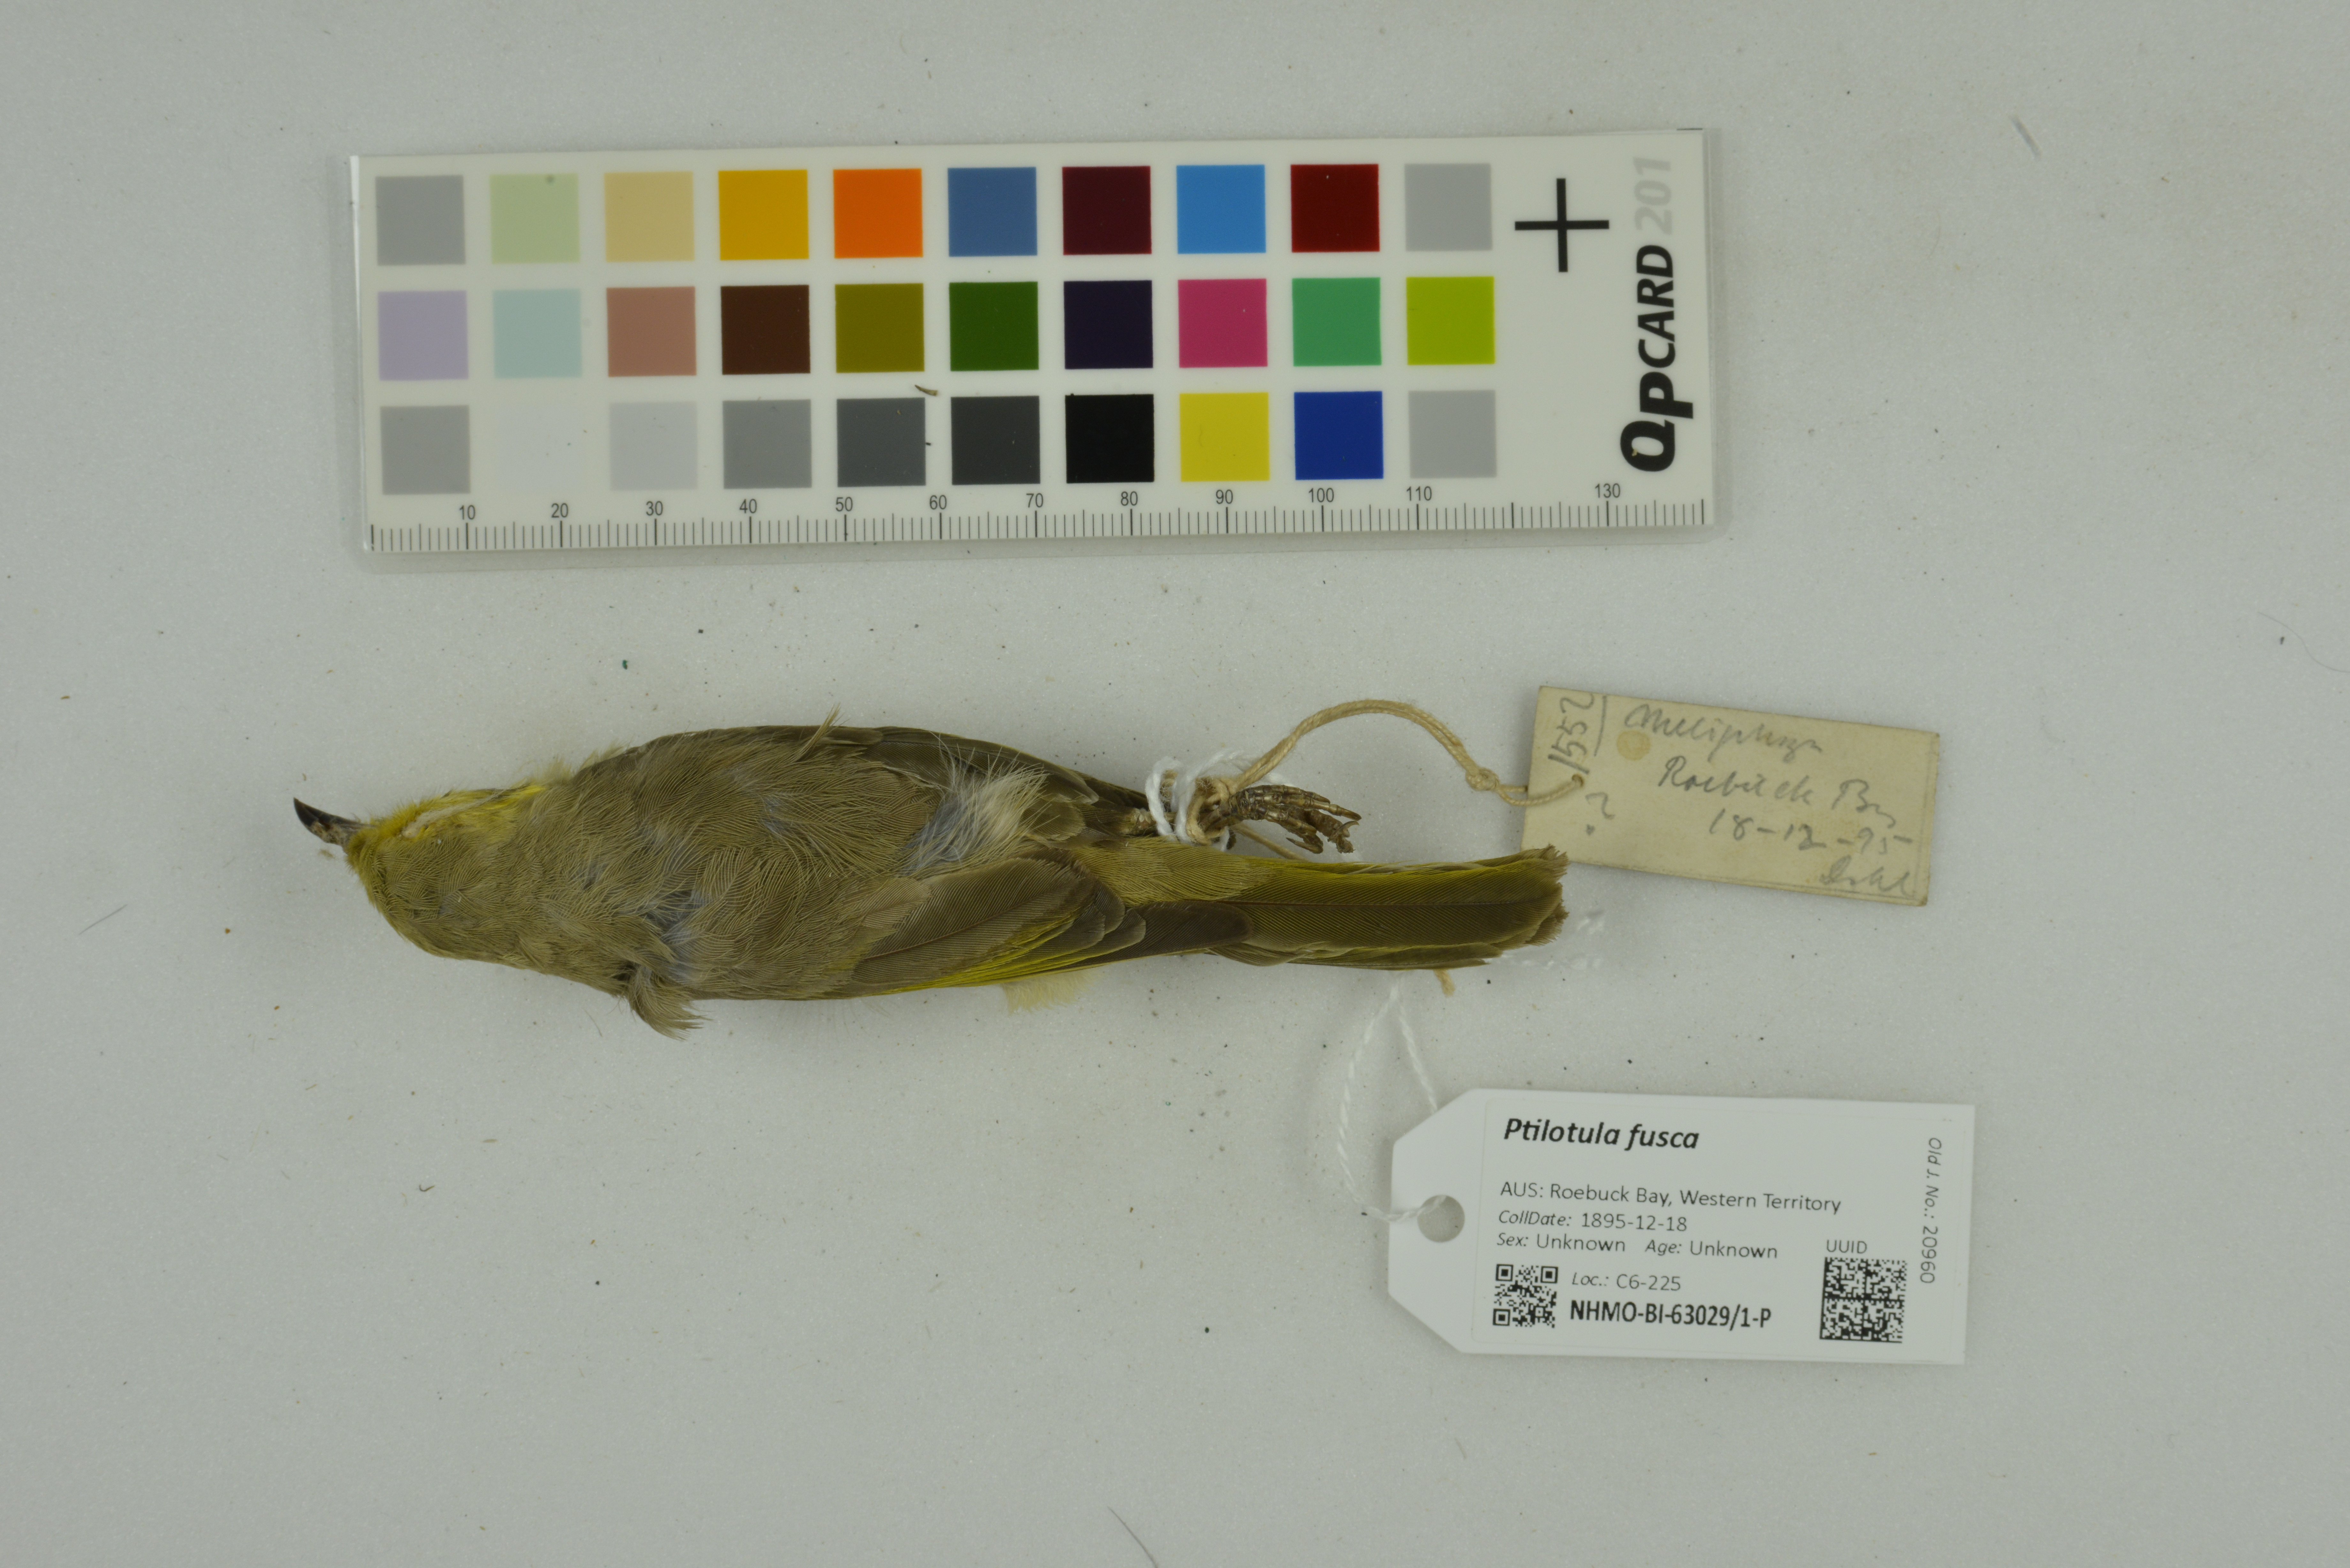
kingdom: Animalia
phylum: Chordata
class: Aves
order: Passeriformes
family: Meliphagidae
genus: Ptilotula
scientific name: Ptilotula fusca
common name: Fuscous honeyeater
